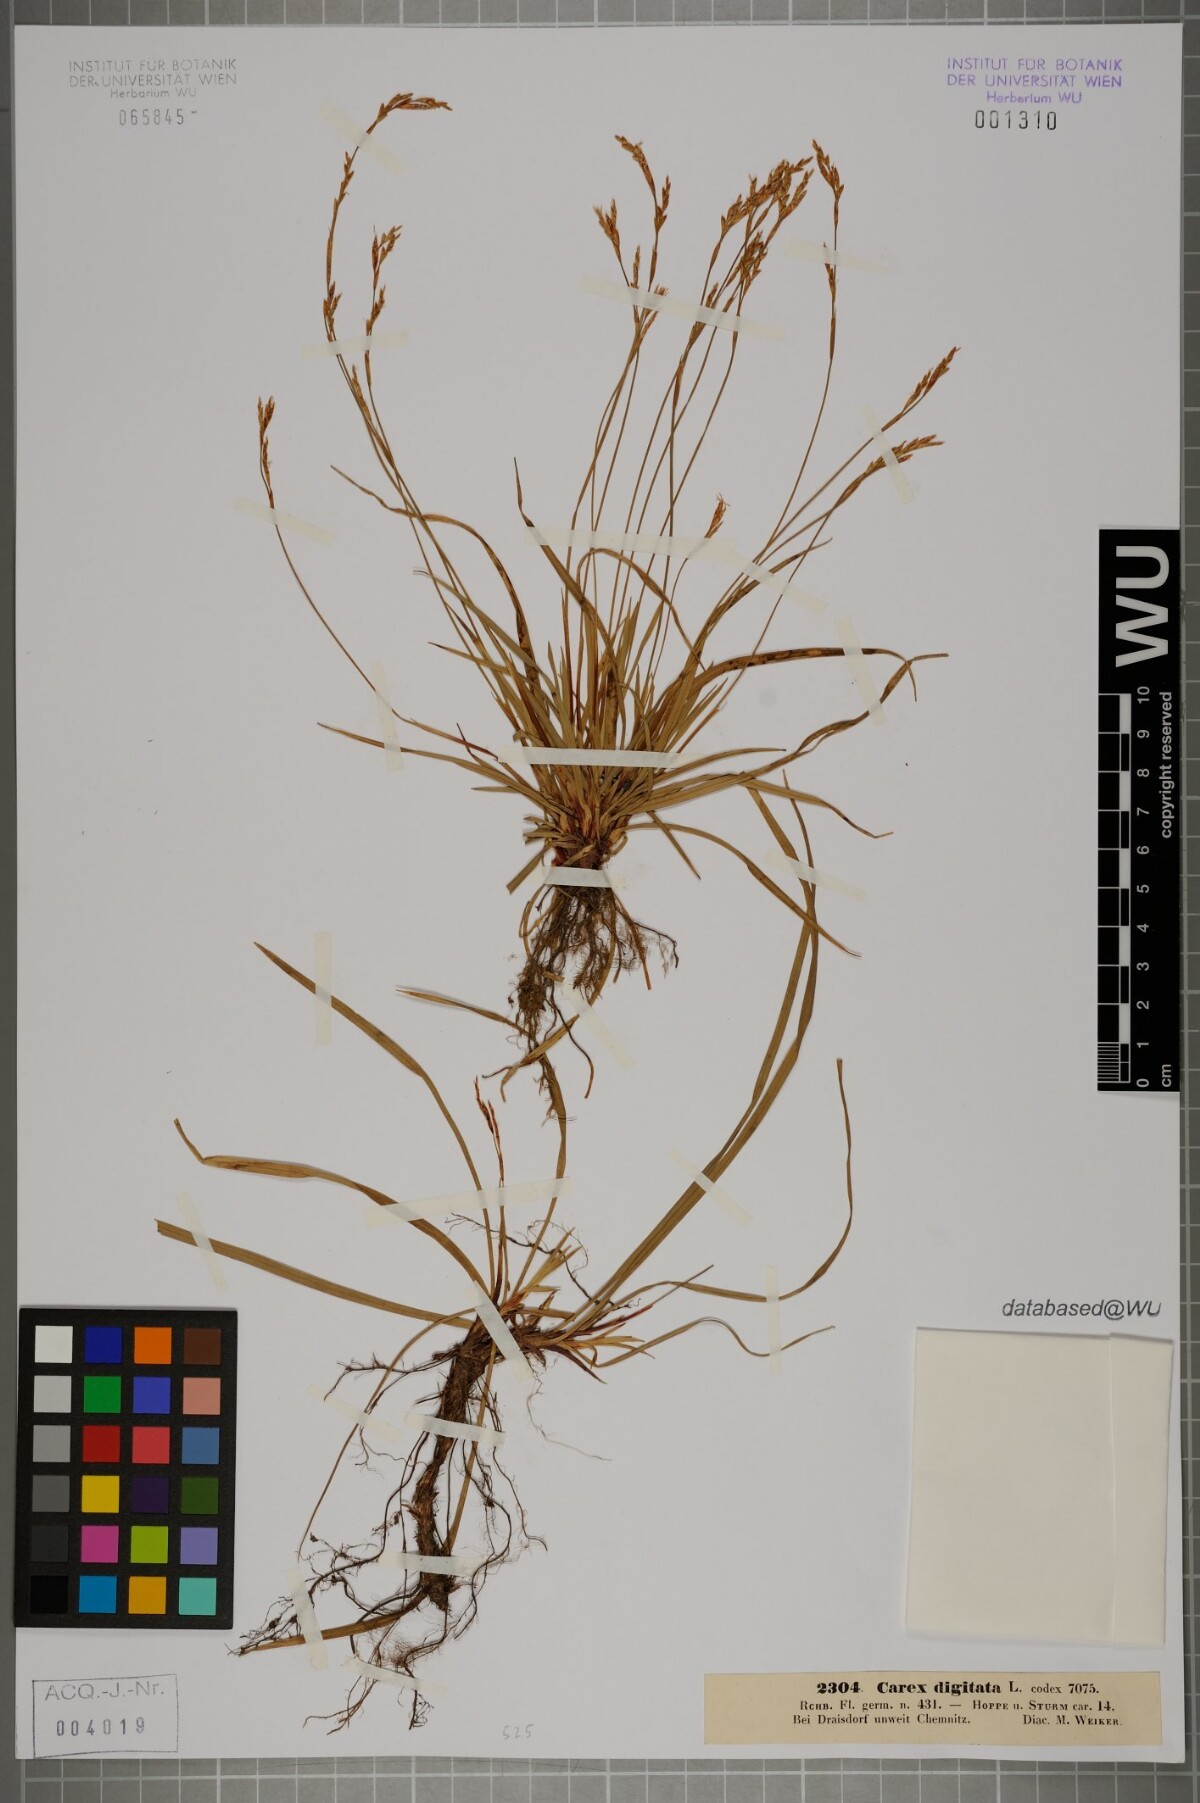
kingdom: Plantae
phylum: Tracheophyta
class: Liliopsida
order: Poales
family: Cyperaceae
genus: Carex
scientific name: Carex digitata
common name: Fingered sedge
